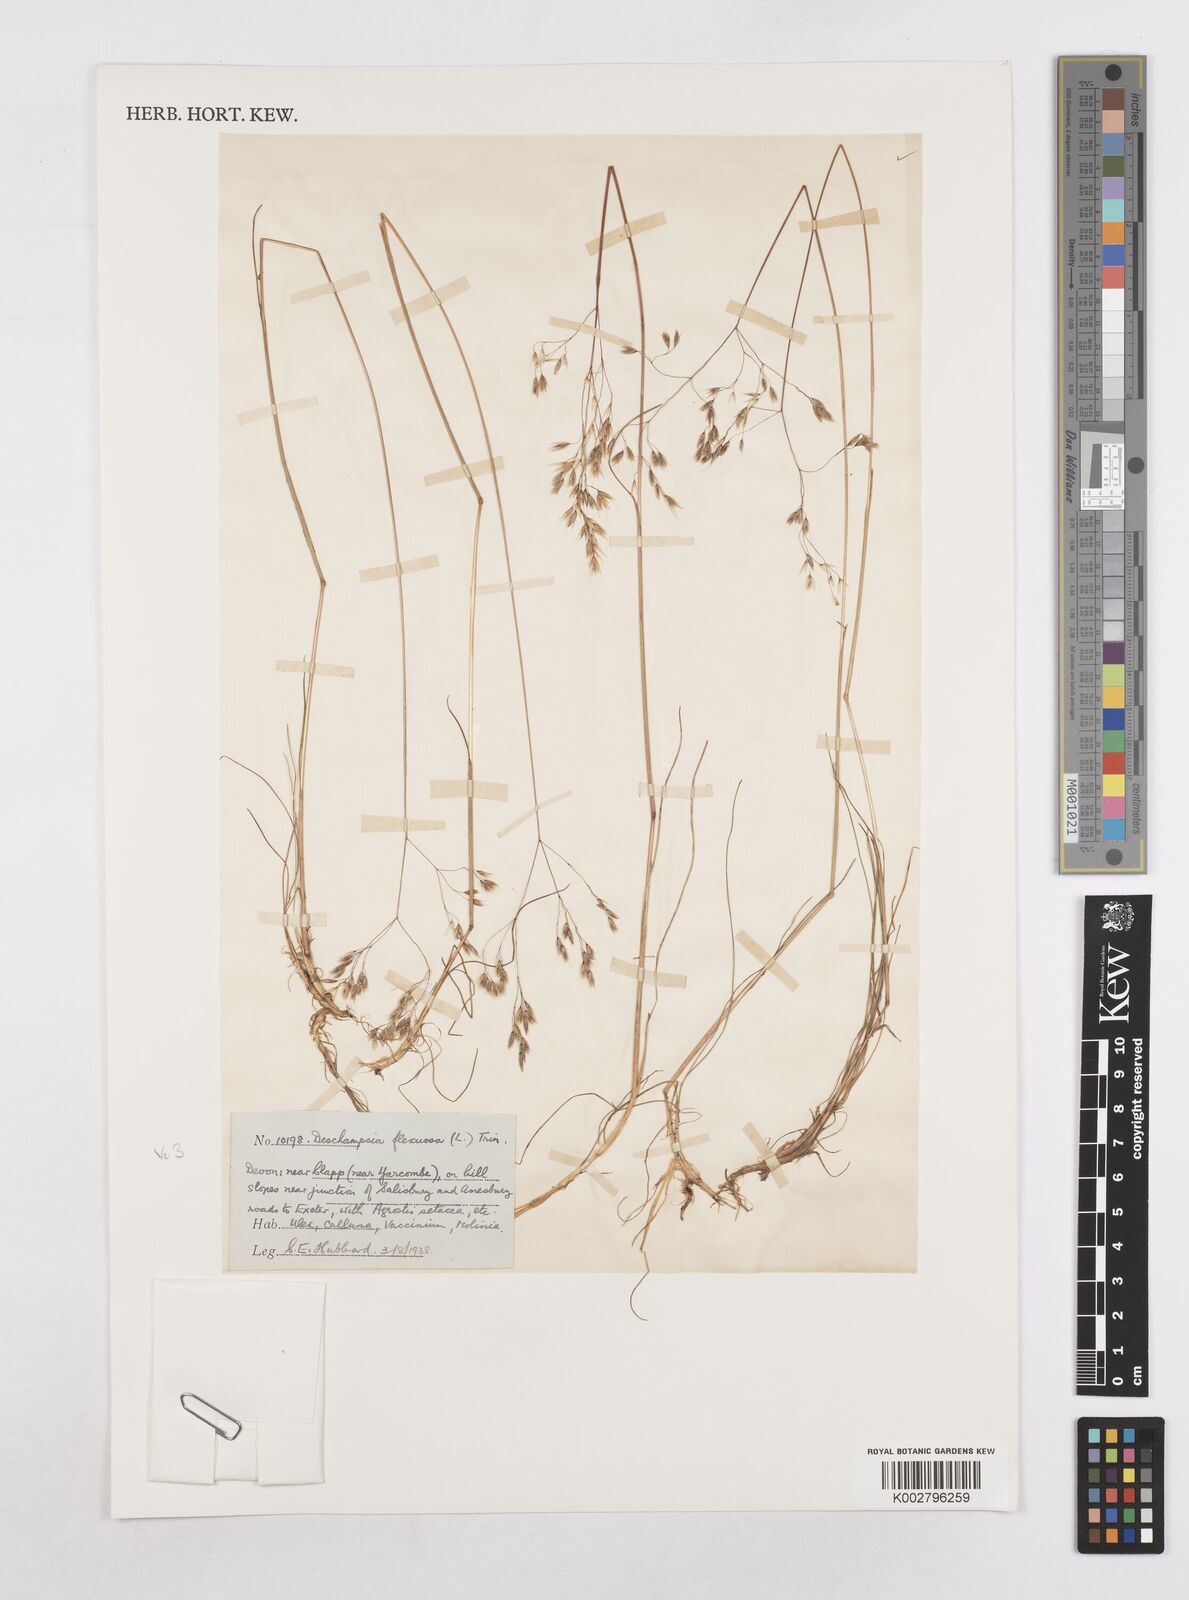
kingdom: Plantae
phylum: Tracheophyta
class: Liliopsida
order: Poales
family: Poaceae
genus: Arrhenatherum
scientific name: Arrhenatherum elatius
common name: Tall oatgrass
